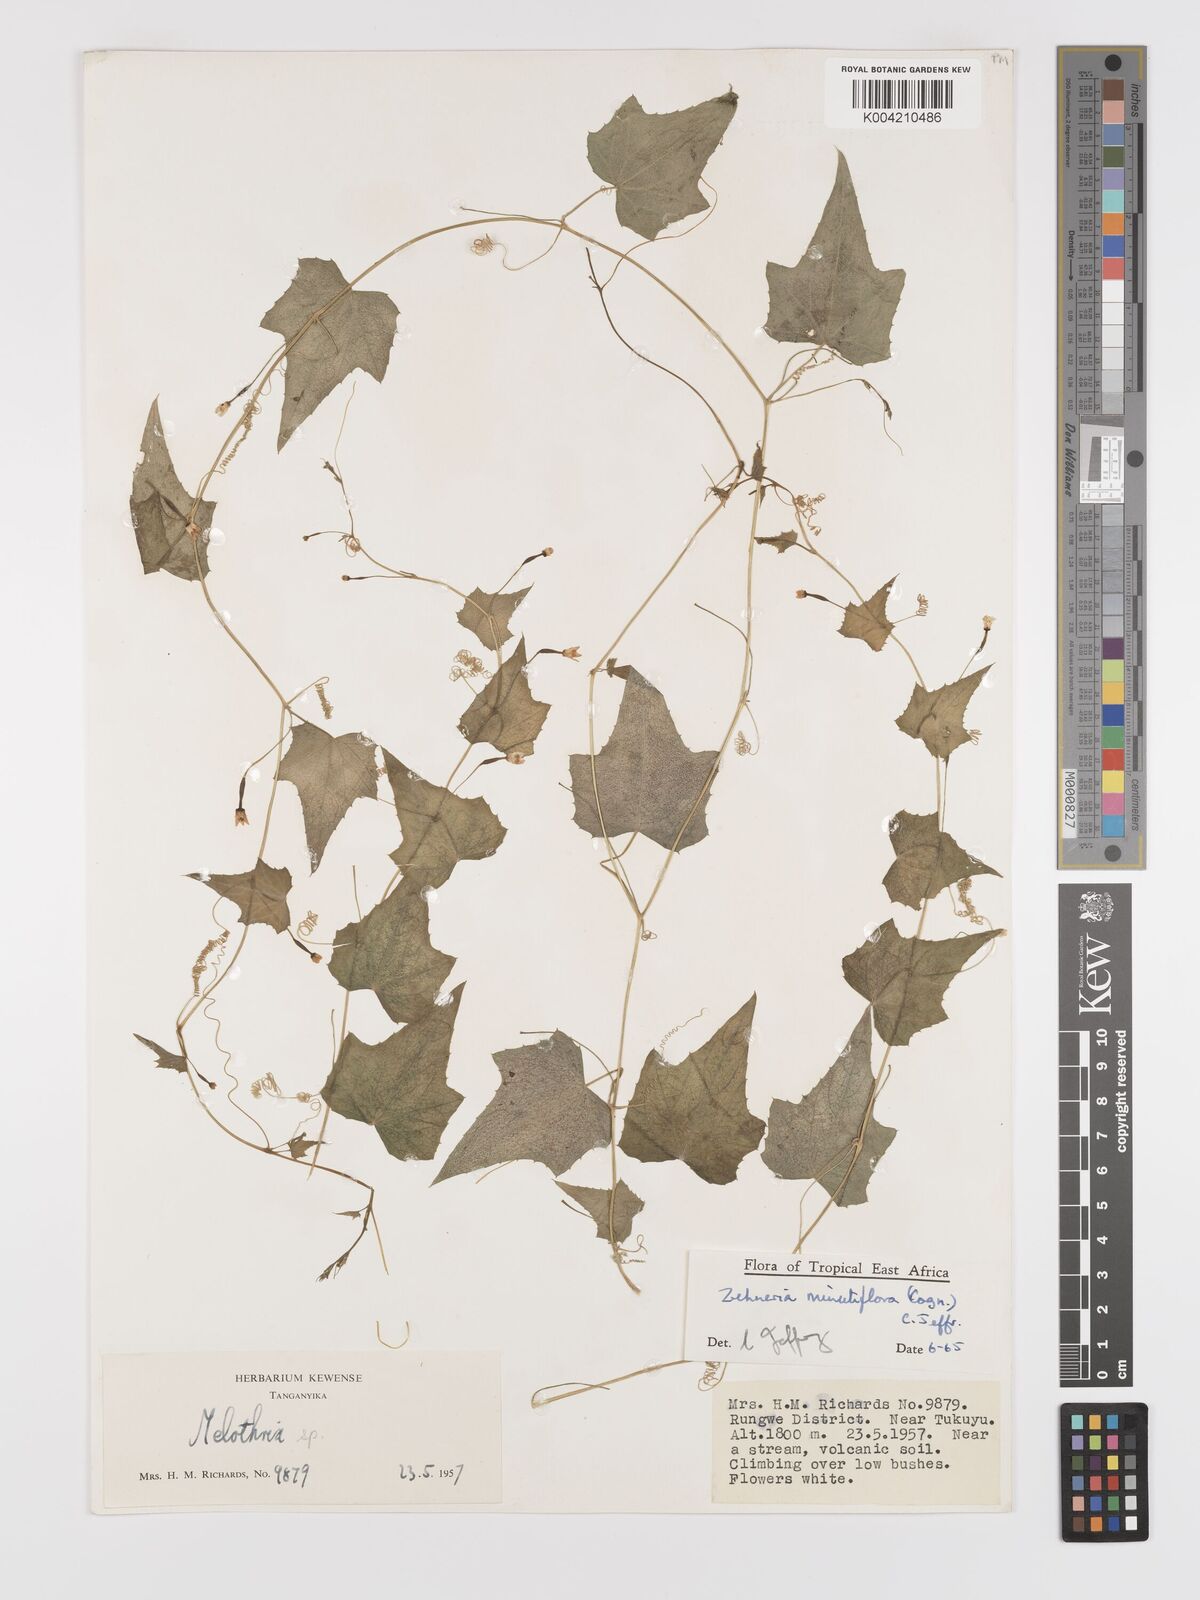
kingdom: Plantae
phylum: Tracheophyta
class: Magnoliopsida
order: Cucurbitales
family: Cucurbitaceae
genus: Zehneria
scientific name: Zehneria minutiflora
